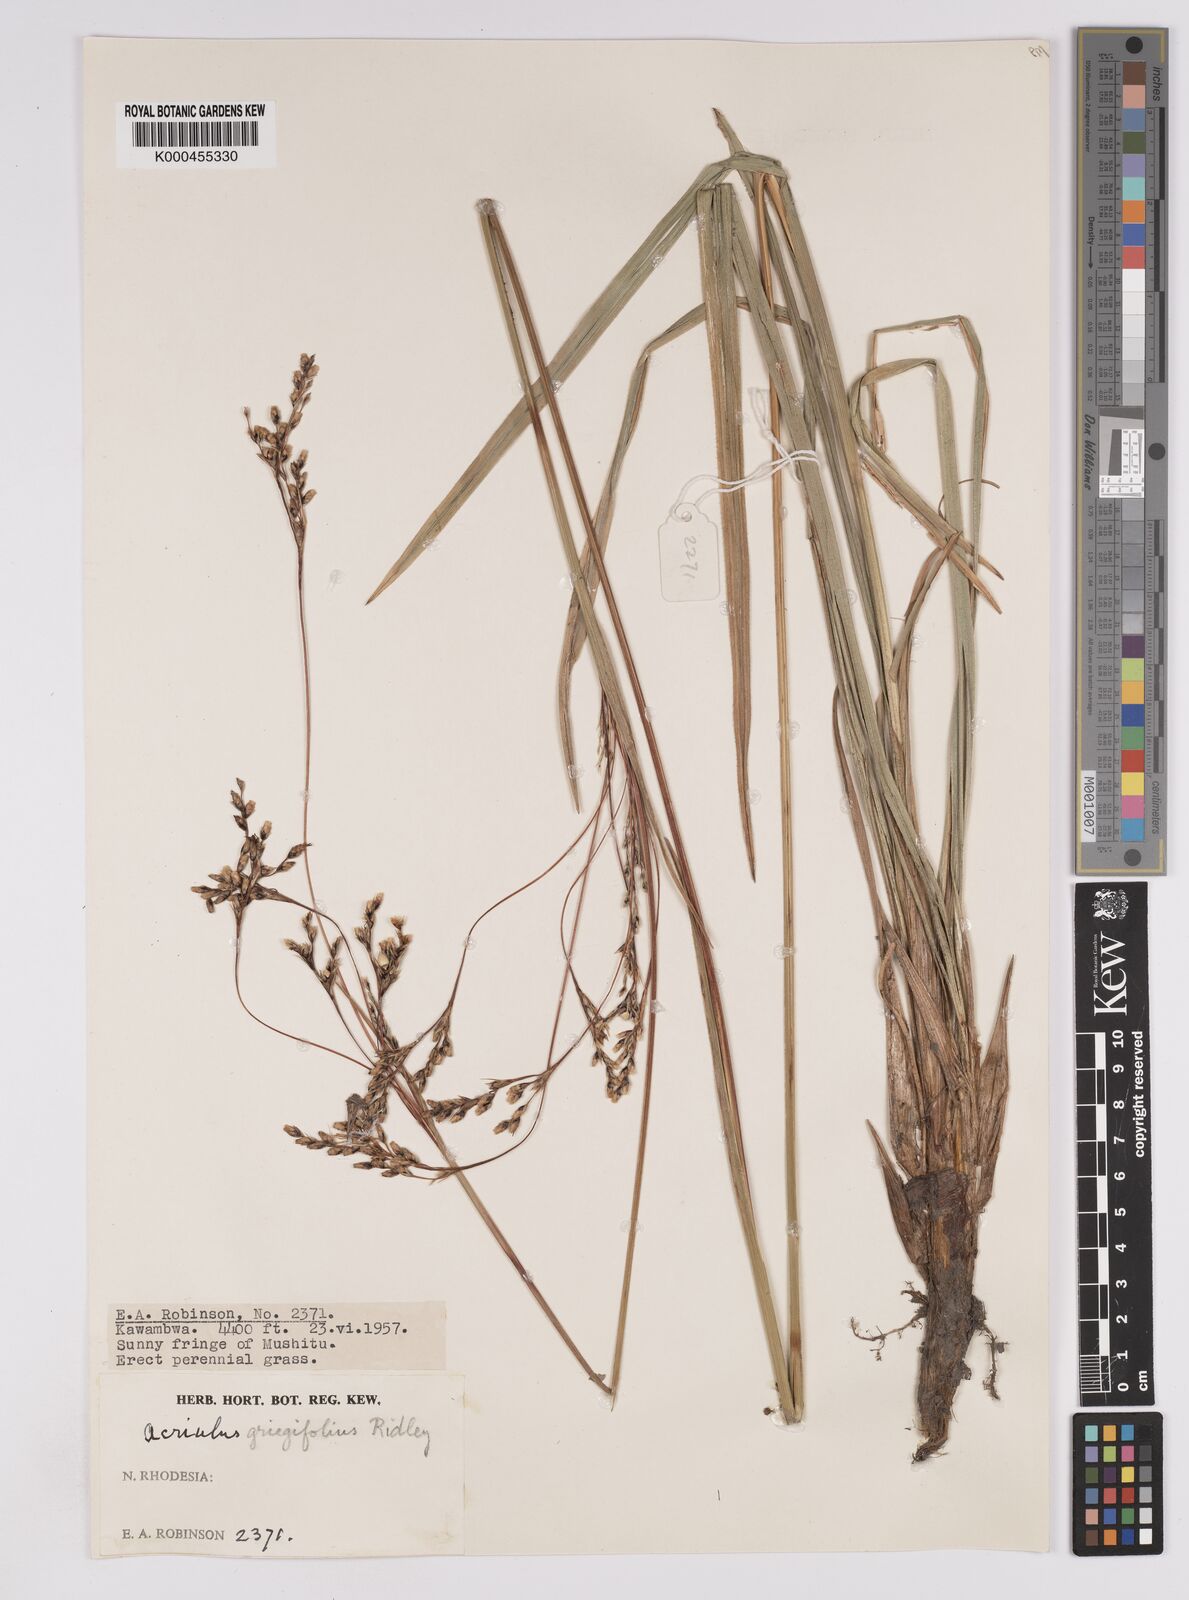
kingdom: Plantae
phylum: Tracheophyta
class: Liliopsida
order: Poales
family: Cyperaceae
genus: Scleria
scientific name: Scleria greigiifolia
